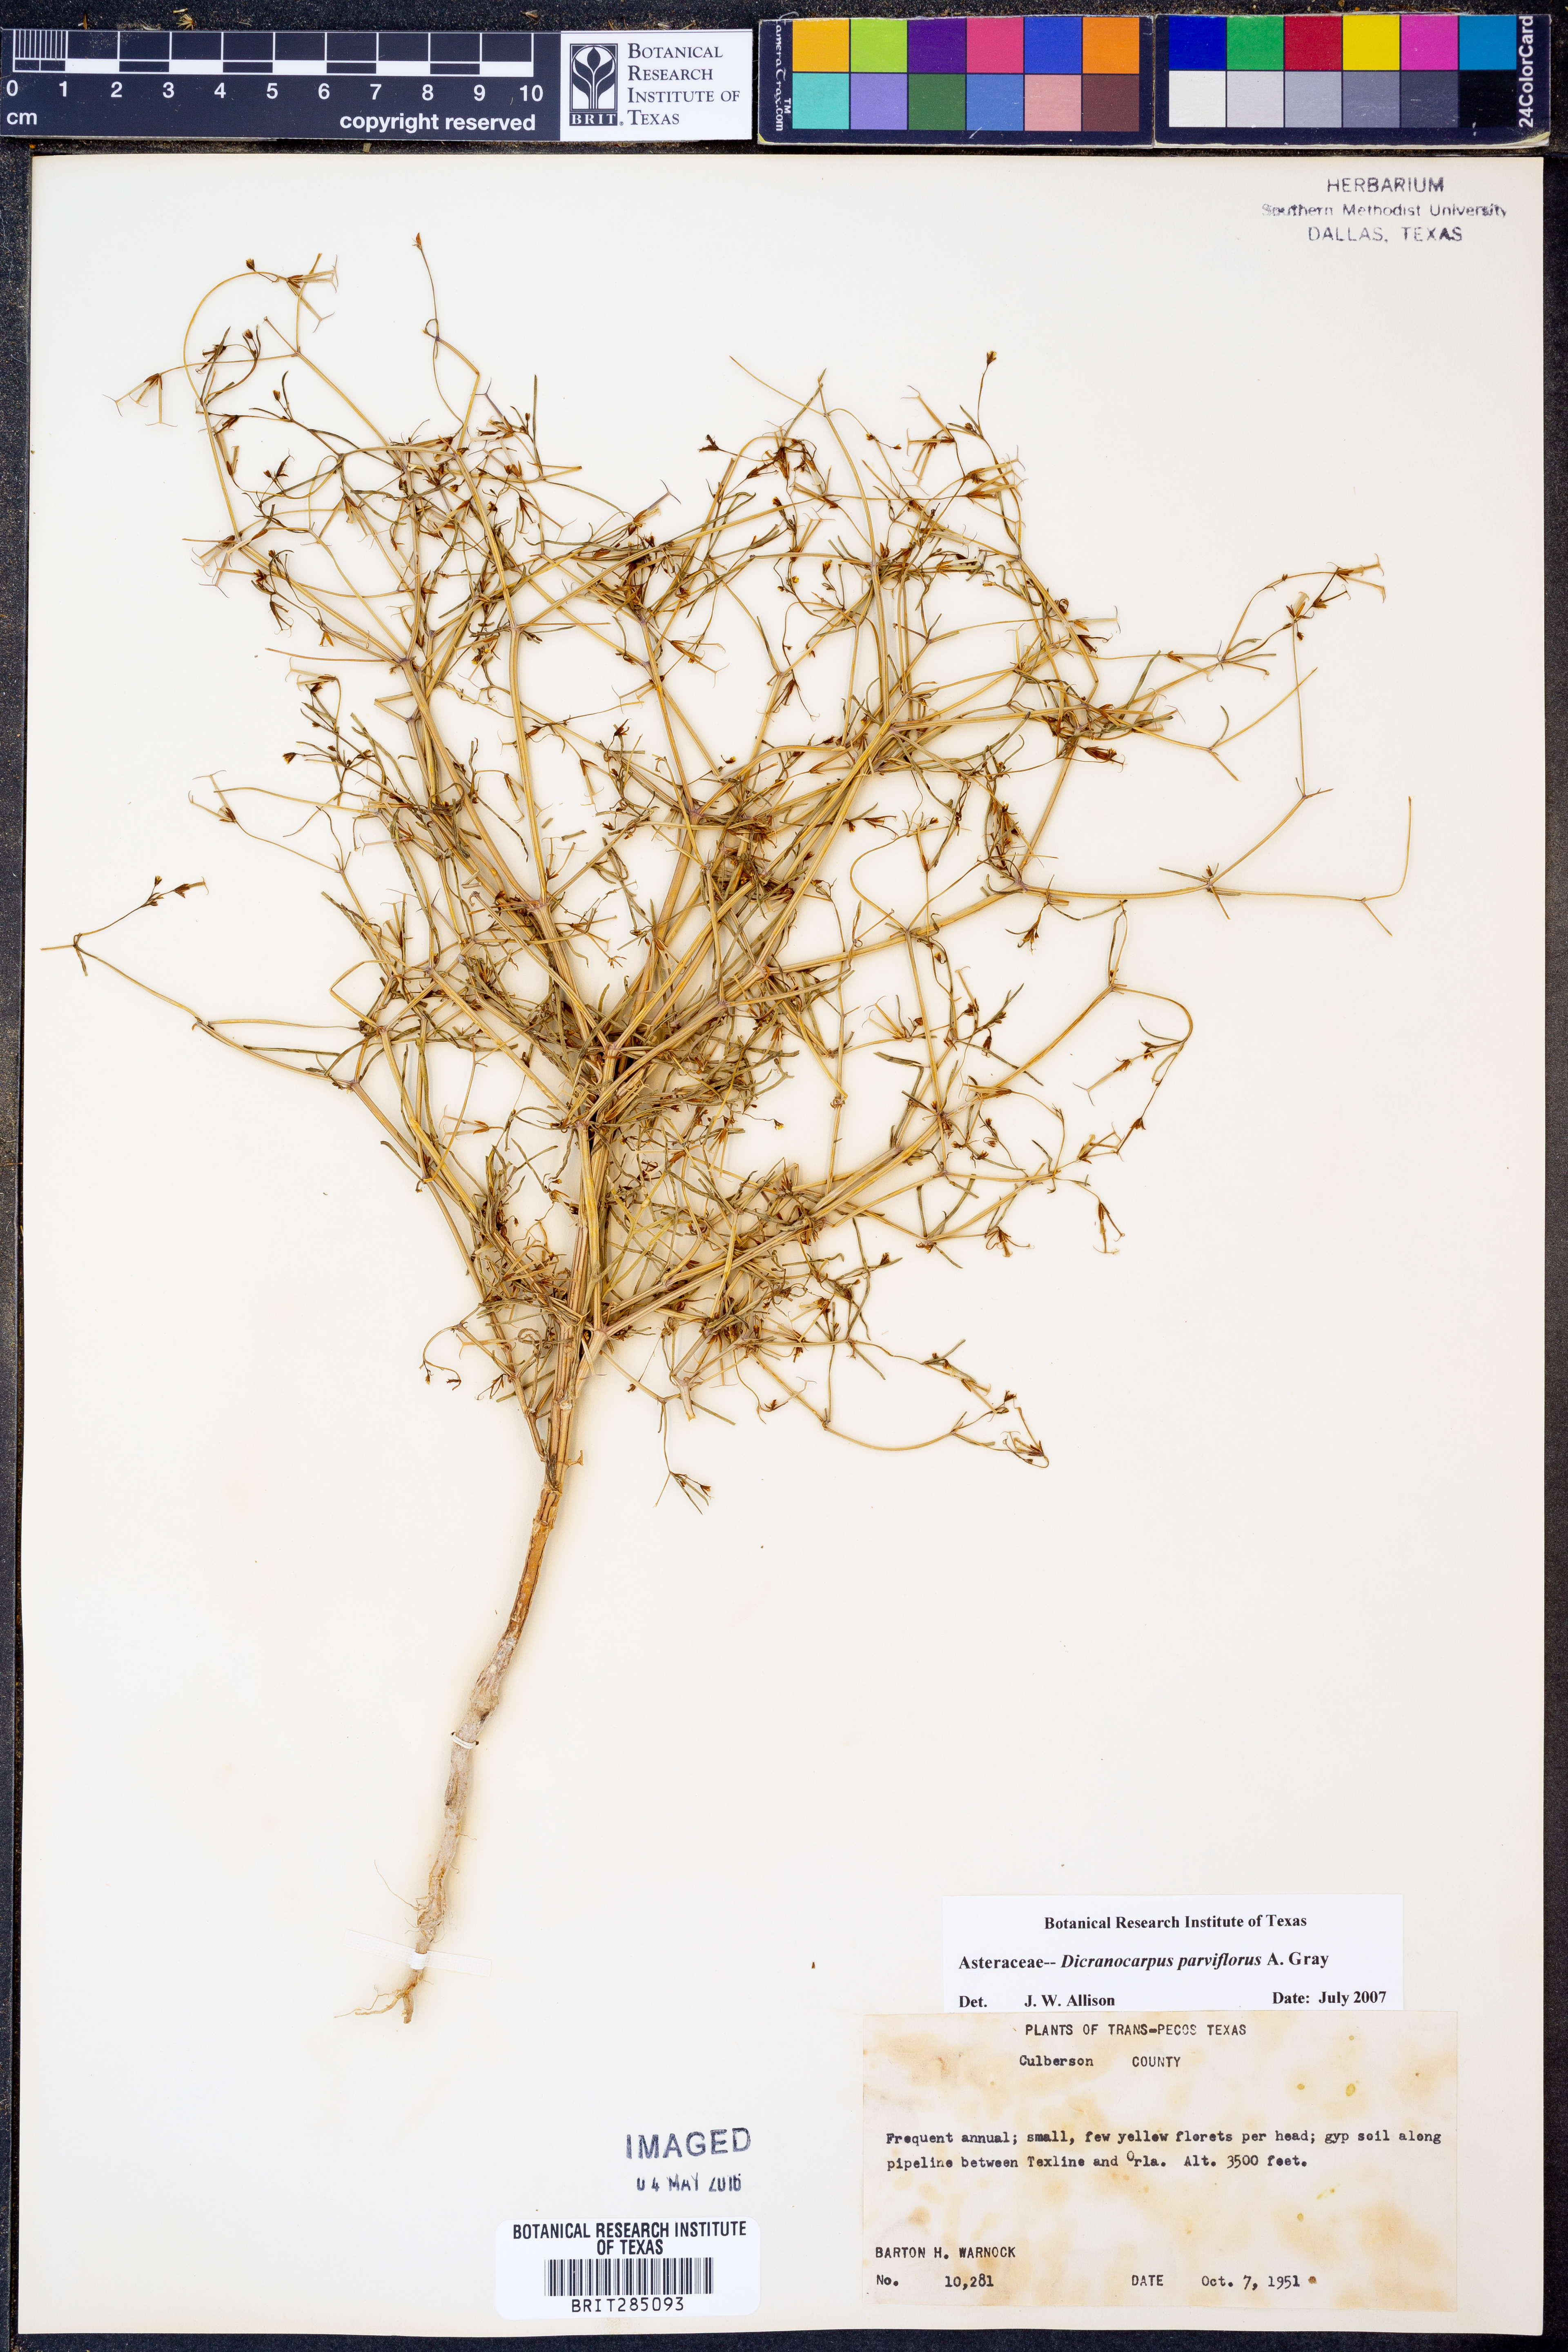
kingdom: Plantae
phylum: Tracheophyta
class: Magnoliopsida
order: Asterales
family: Asteraceae
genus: Dicranocarpus
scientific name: Dicranocarpus parviflorus
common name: Pitchfork
